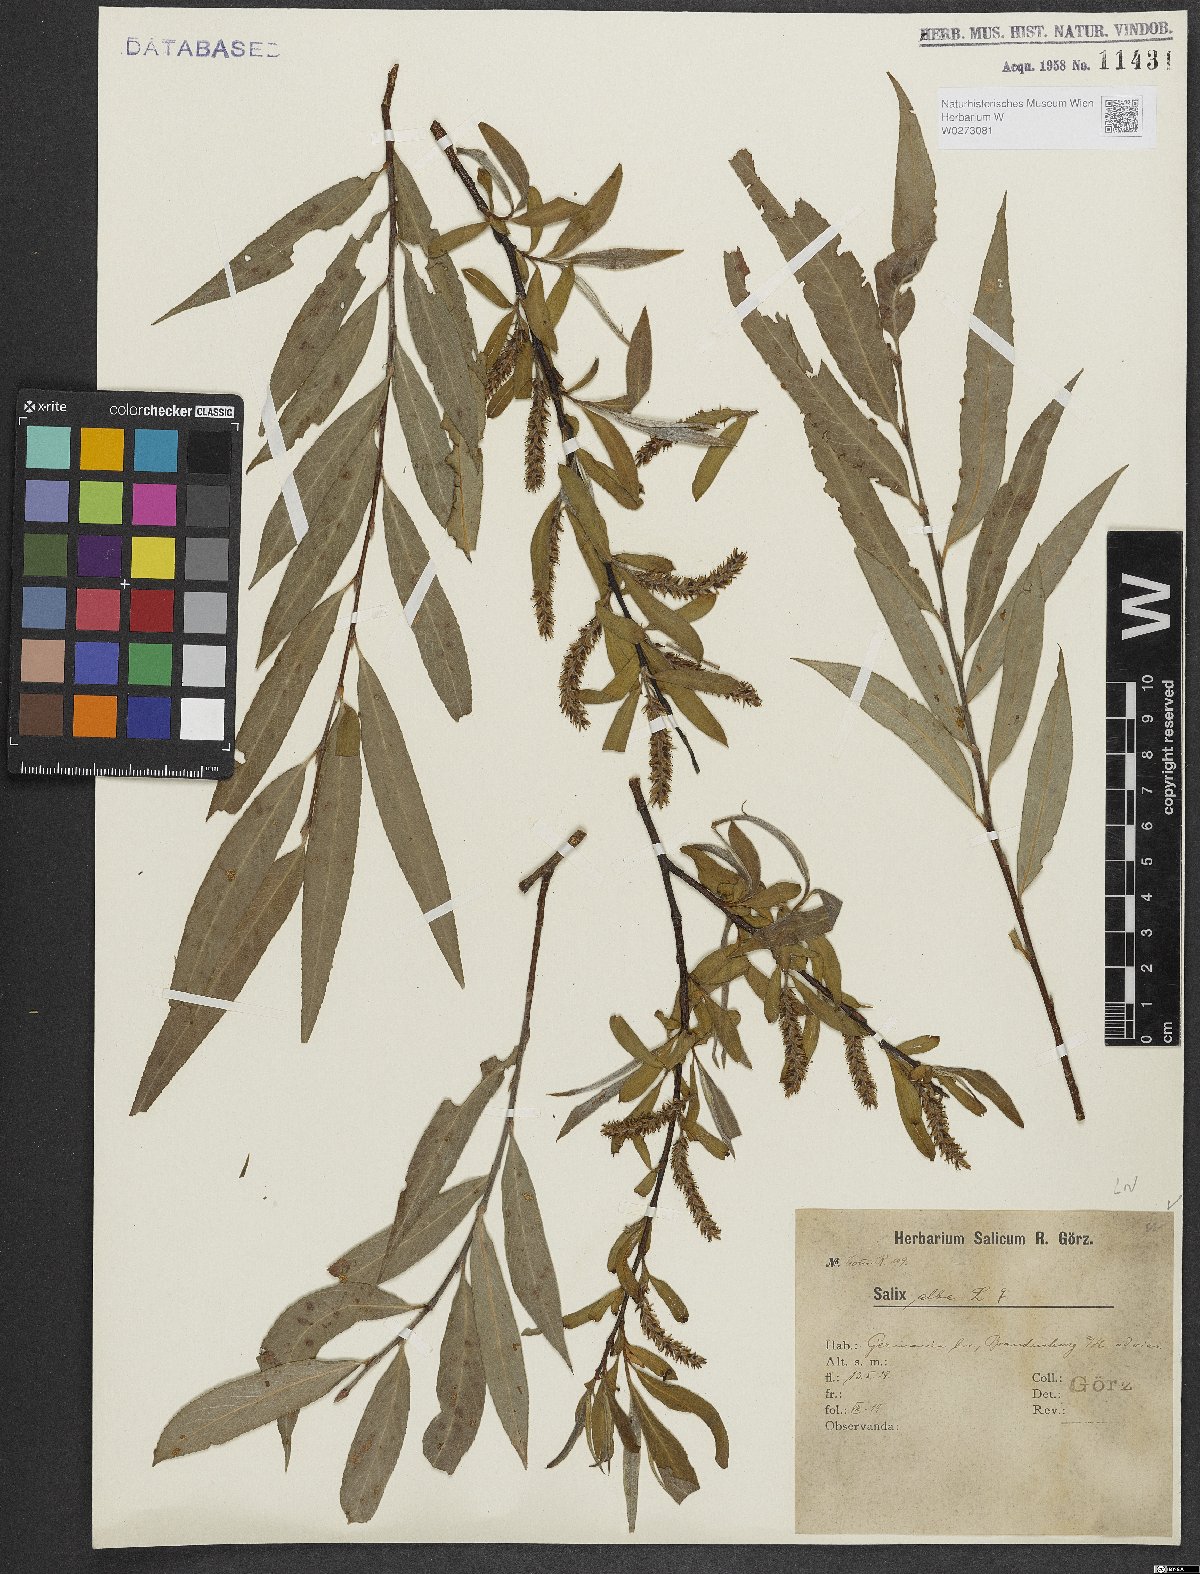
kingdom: Plantae
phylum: Tracheophyta
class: Magnoliopsida
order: Malpighiales
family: Salicaceae
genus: Salix
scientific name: Salix alba
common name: White willow
